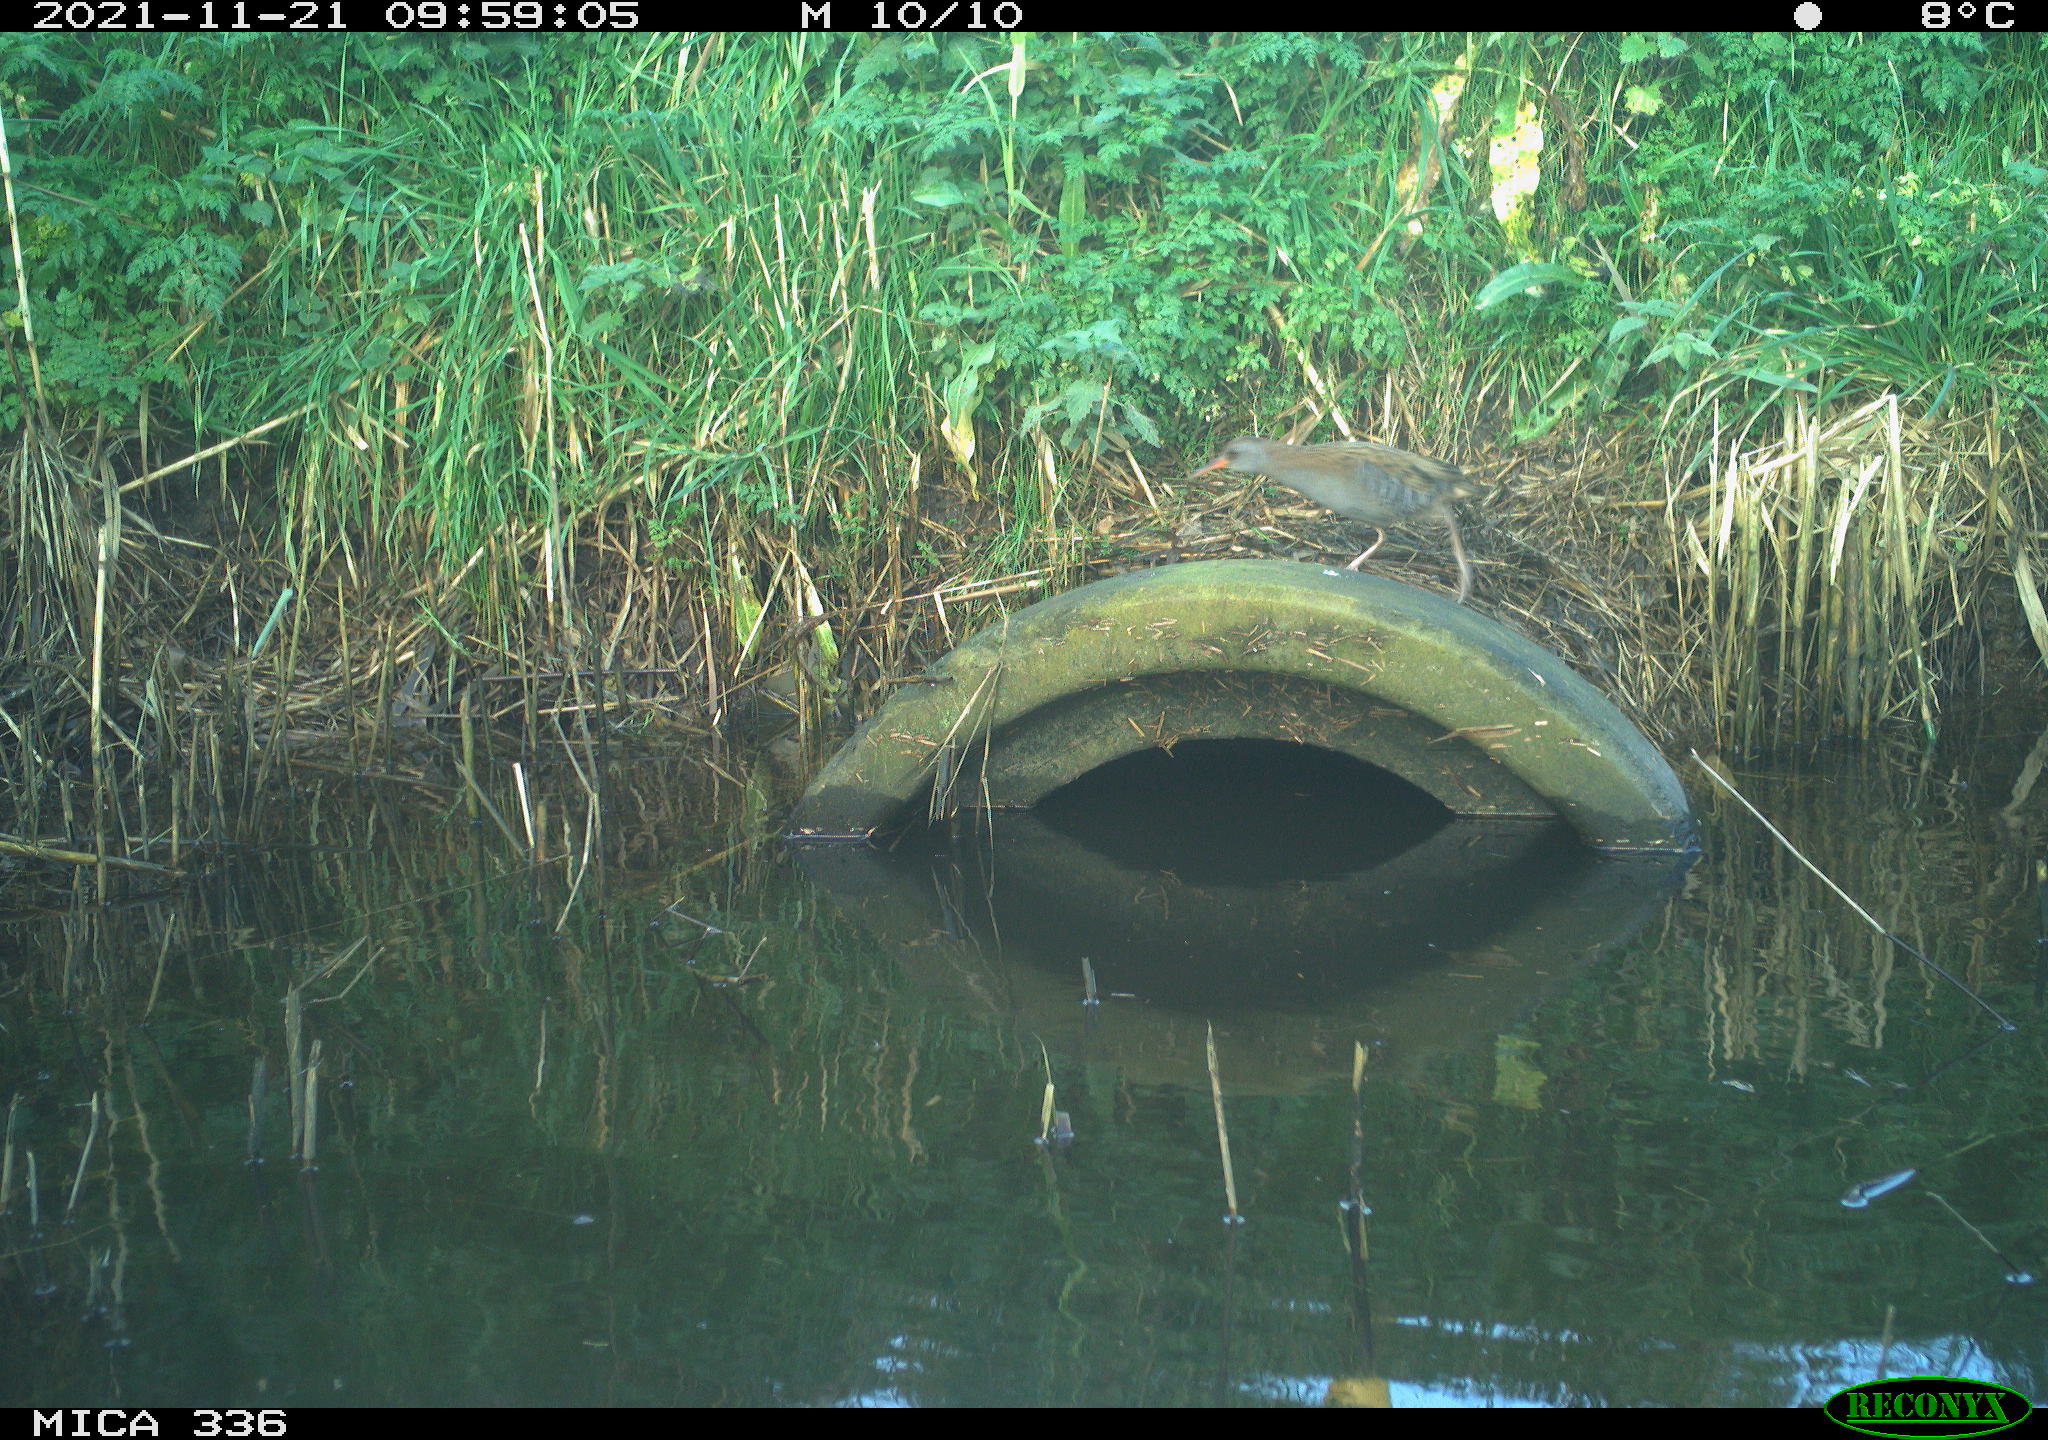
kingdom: Animalia
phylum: Chordata
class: Aves
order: Gruiformes
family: Rallidae
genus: Gallinula
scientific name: Gallinula chloropus
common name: Common moorhen
